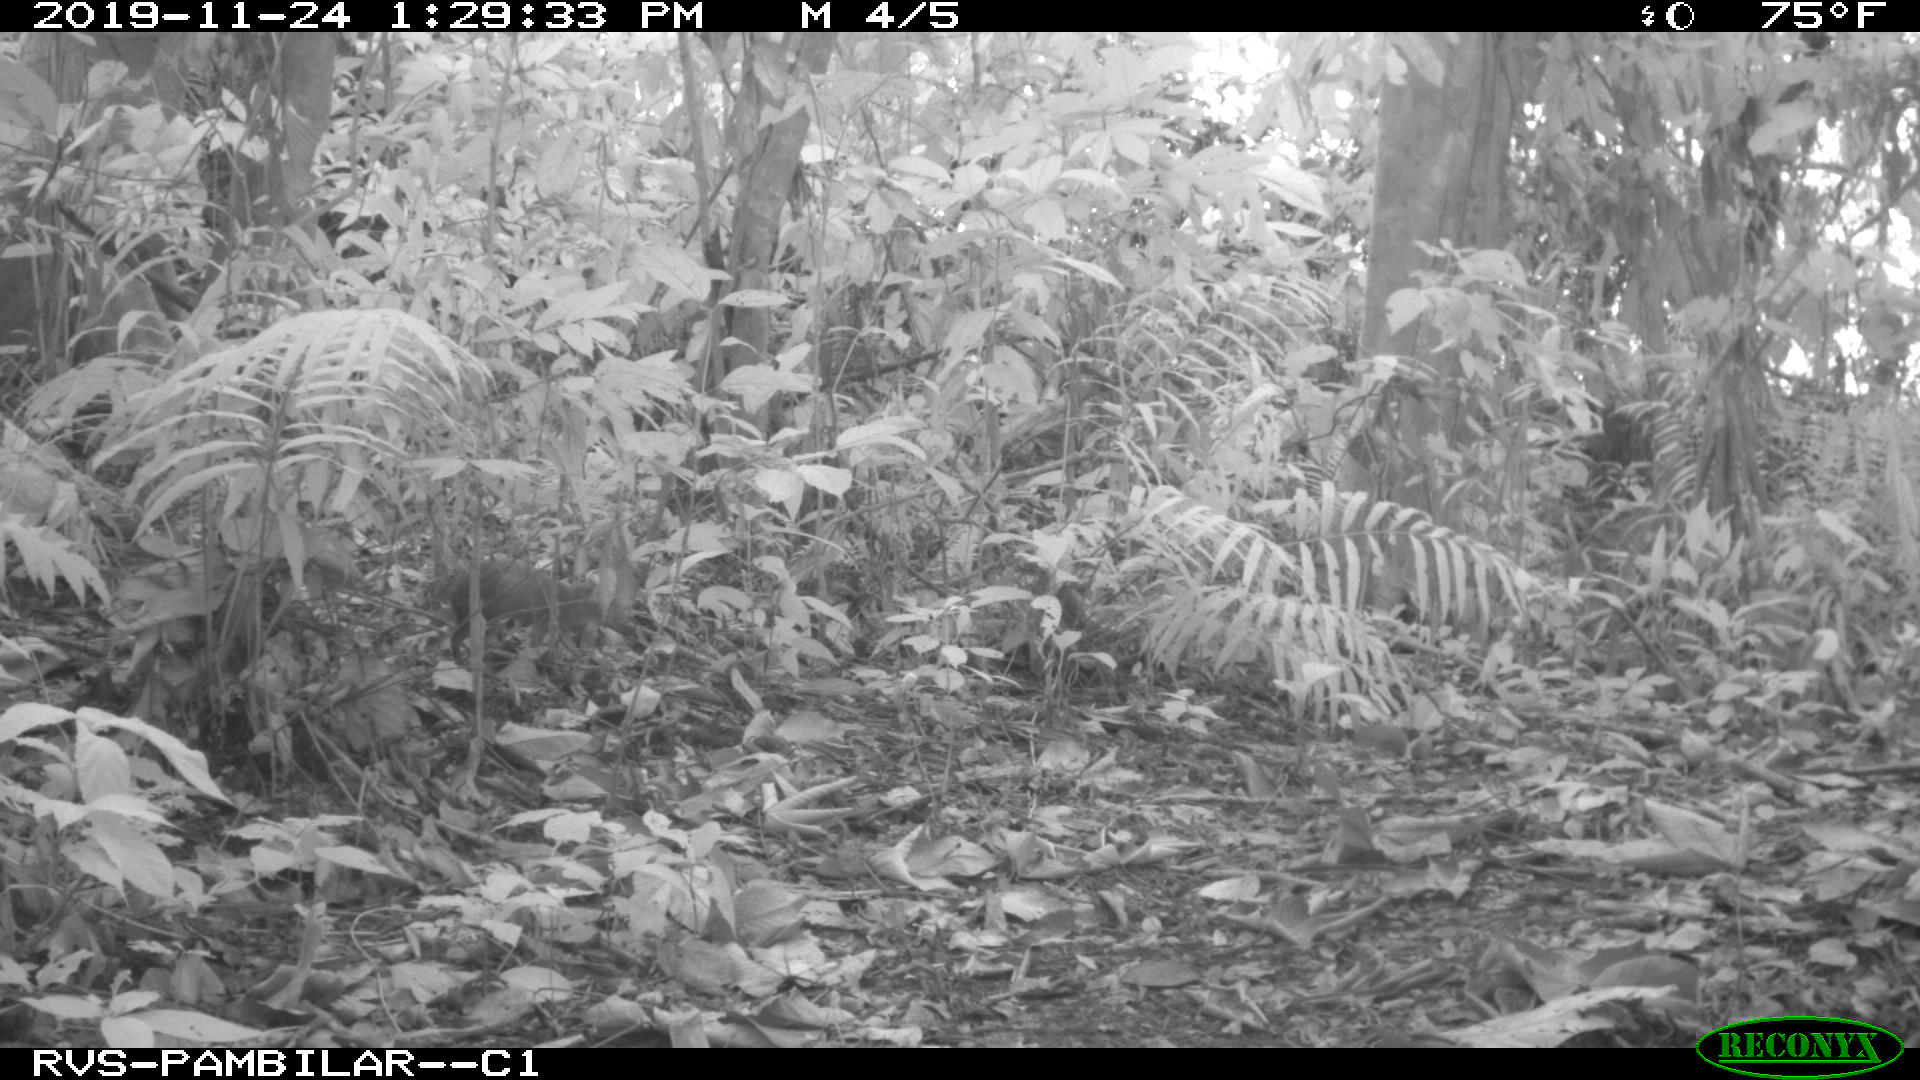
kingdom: Animalia
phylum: Chordata
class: Mammalia
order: Rodentia
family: Dasyproctidae
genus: Dasyprocta
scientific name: Dasyprocta punctata
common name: Central american agouti
